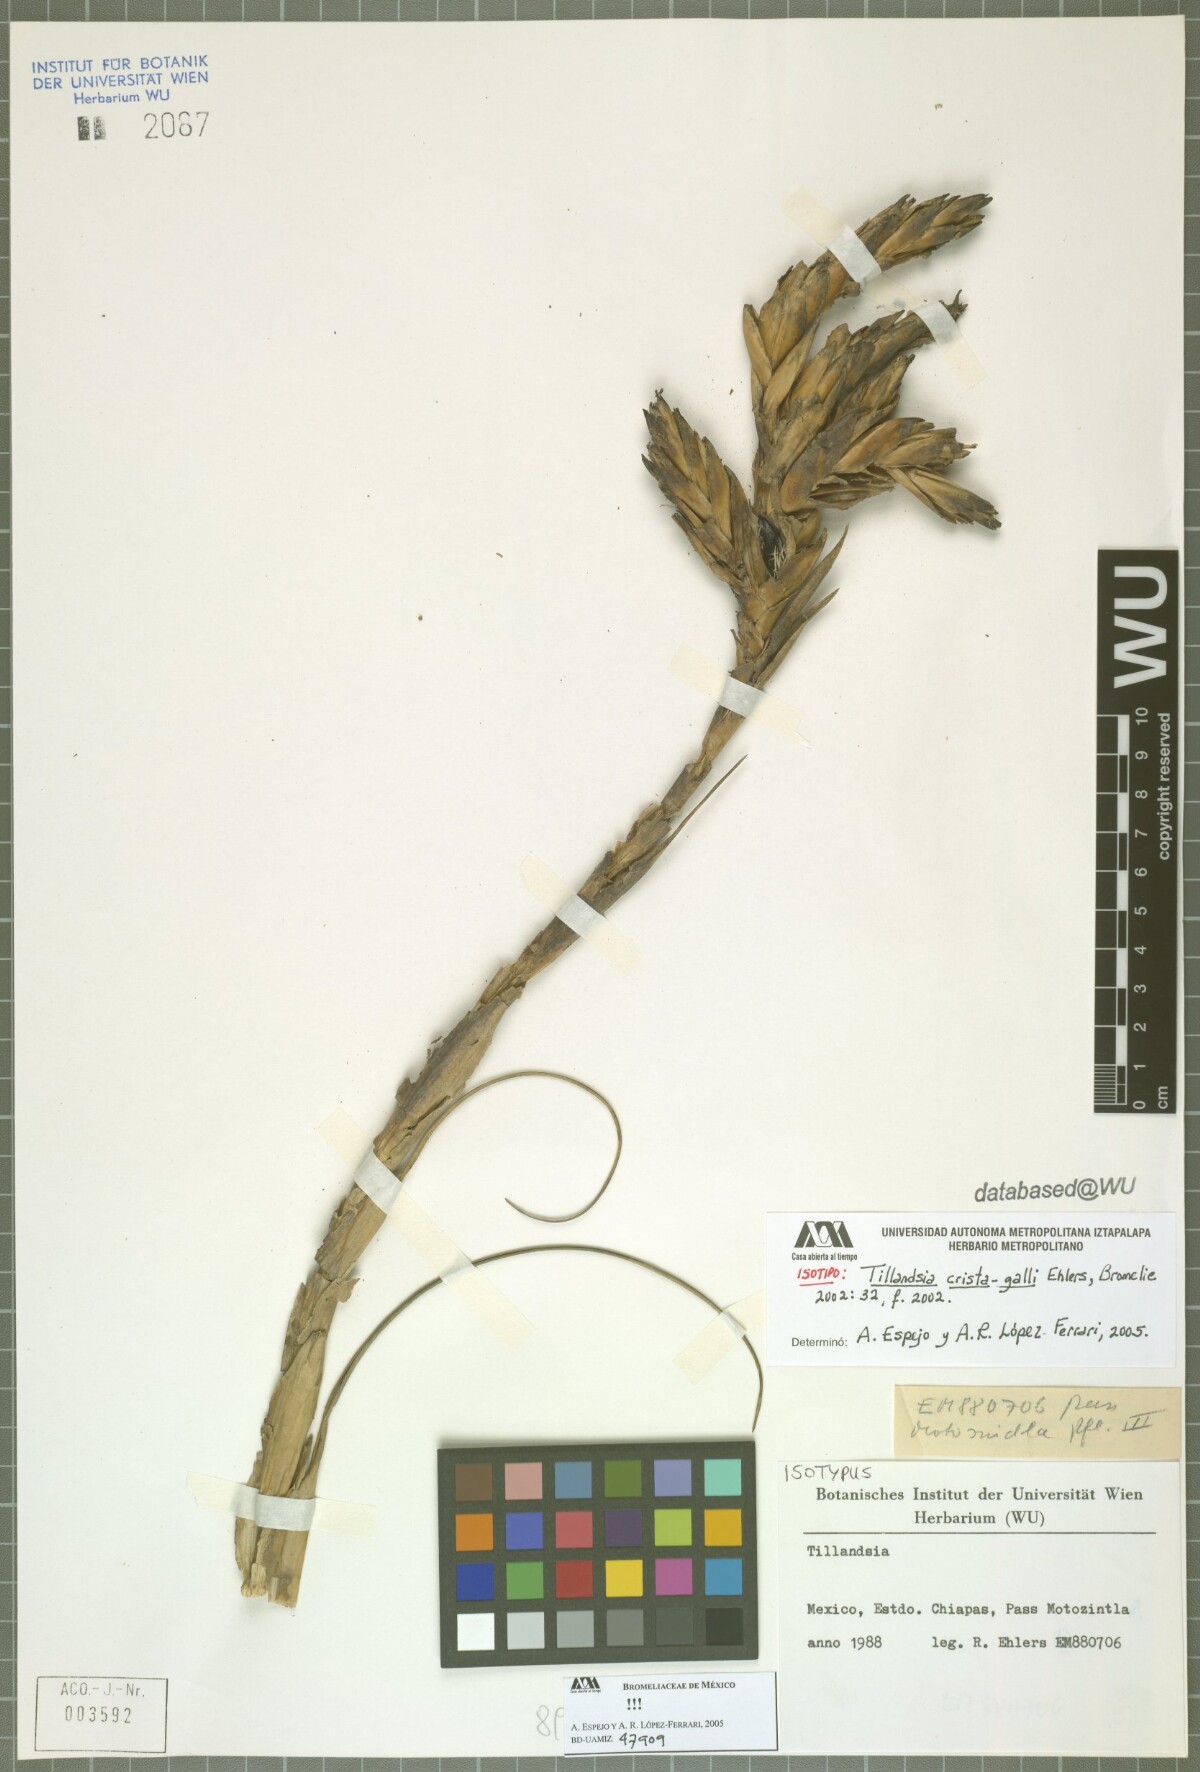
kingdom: Plantae
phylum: Tracheophyta
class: Liliopsida
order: Poales
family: Bromeliaceae
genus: Tillandsia
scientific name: Tillandsia crista-galli
